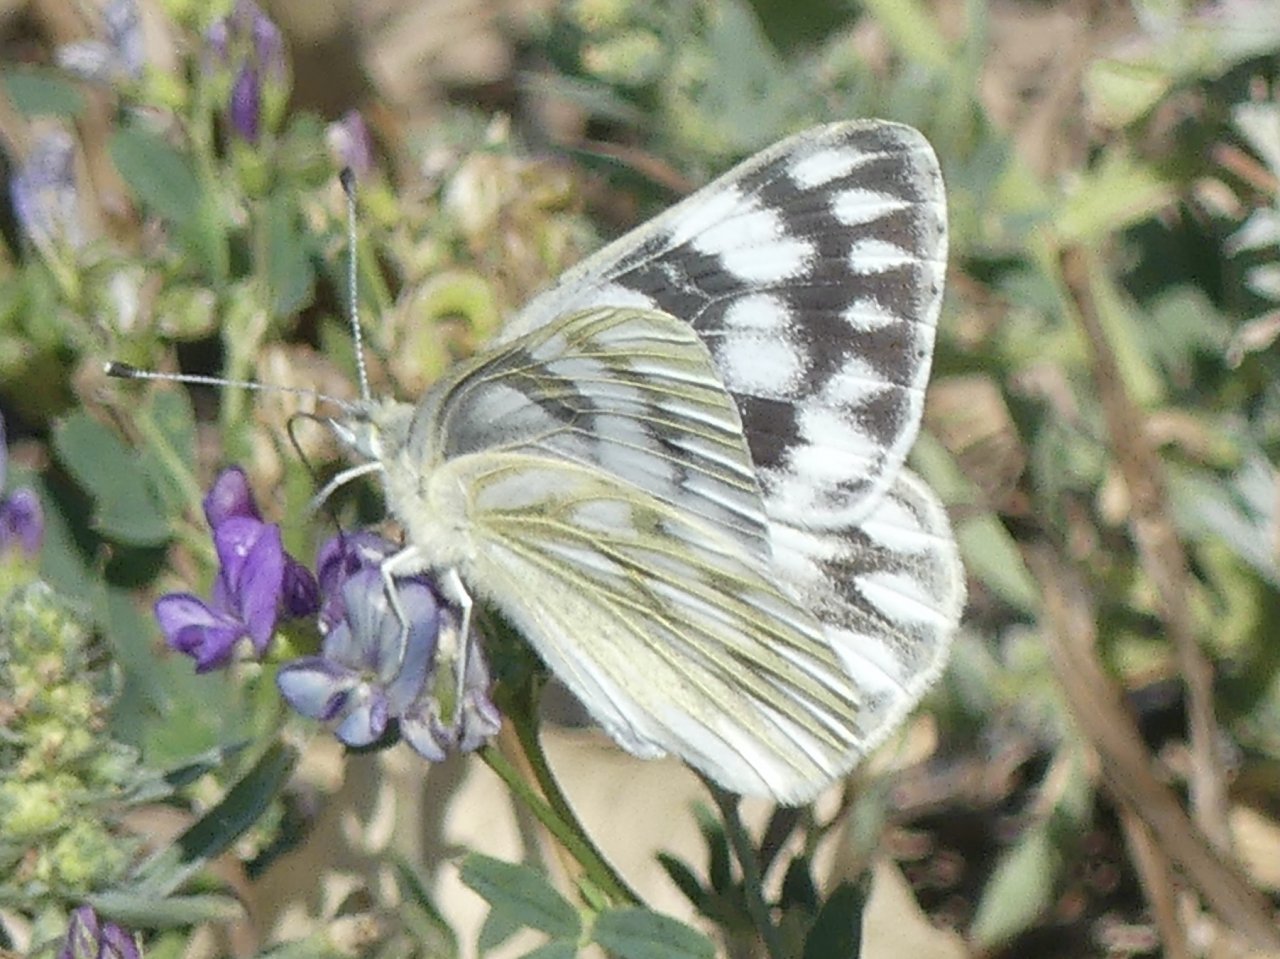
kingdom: Animalia
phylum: Arthropoda
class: Insecta
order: Lepidoptera
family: Pieridae
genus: Pontia
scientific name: Pontia occidentalis
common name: Western White
